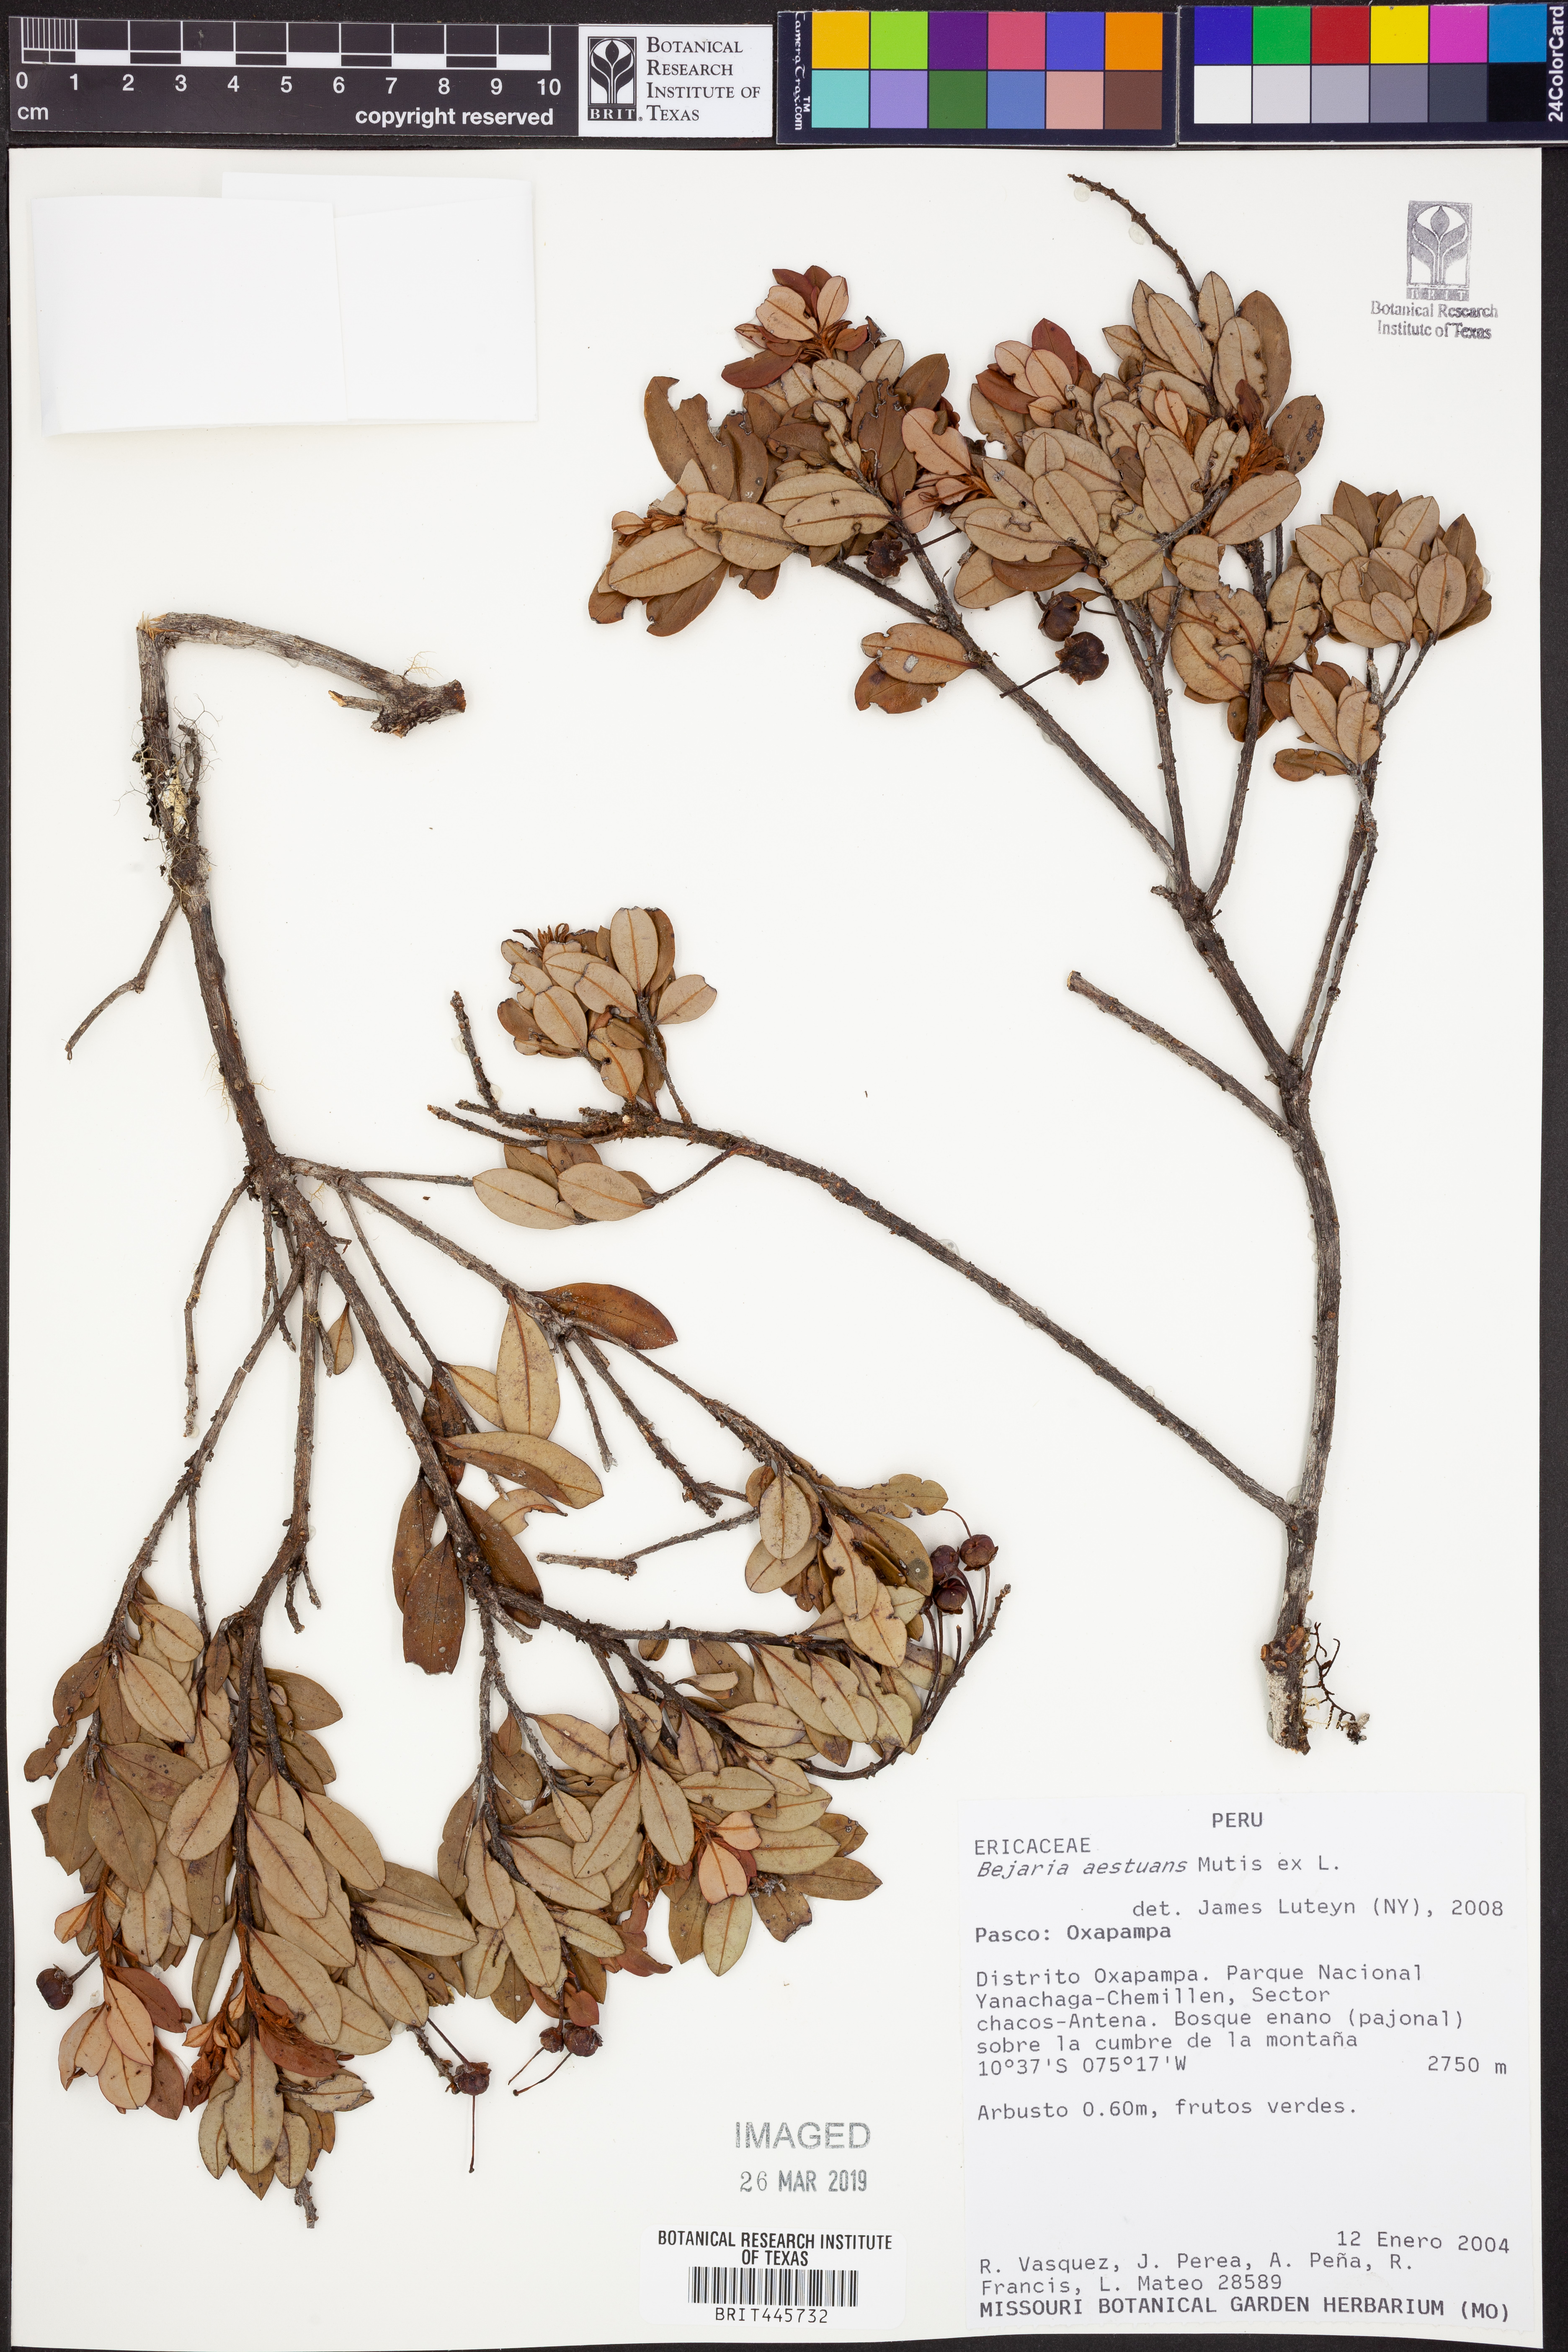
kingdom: Plantae
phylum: Tracheophyta
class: Magnoliopsida
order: Ericales
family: Ericaceae
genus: Bejaria
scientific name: Bejaria aestuans
